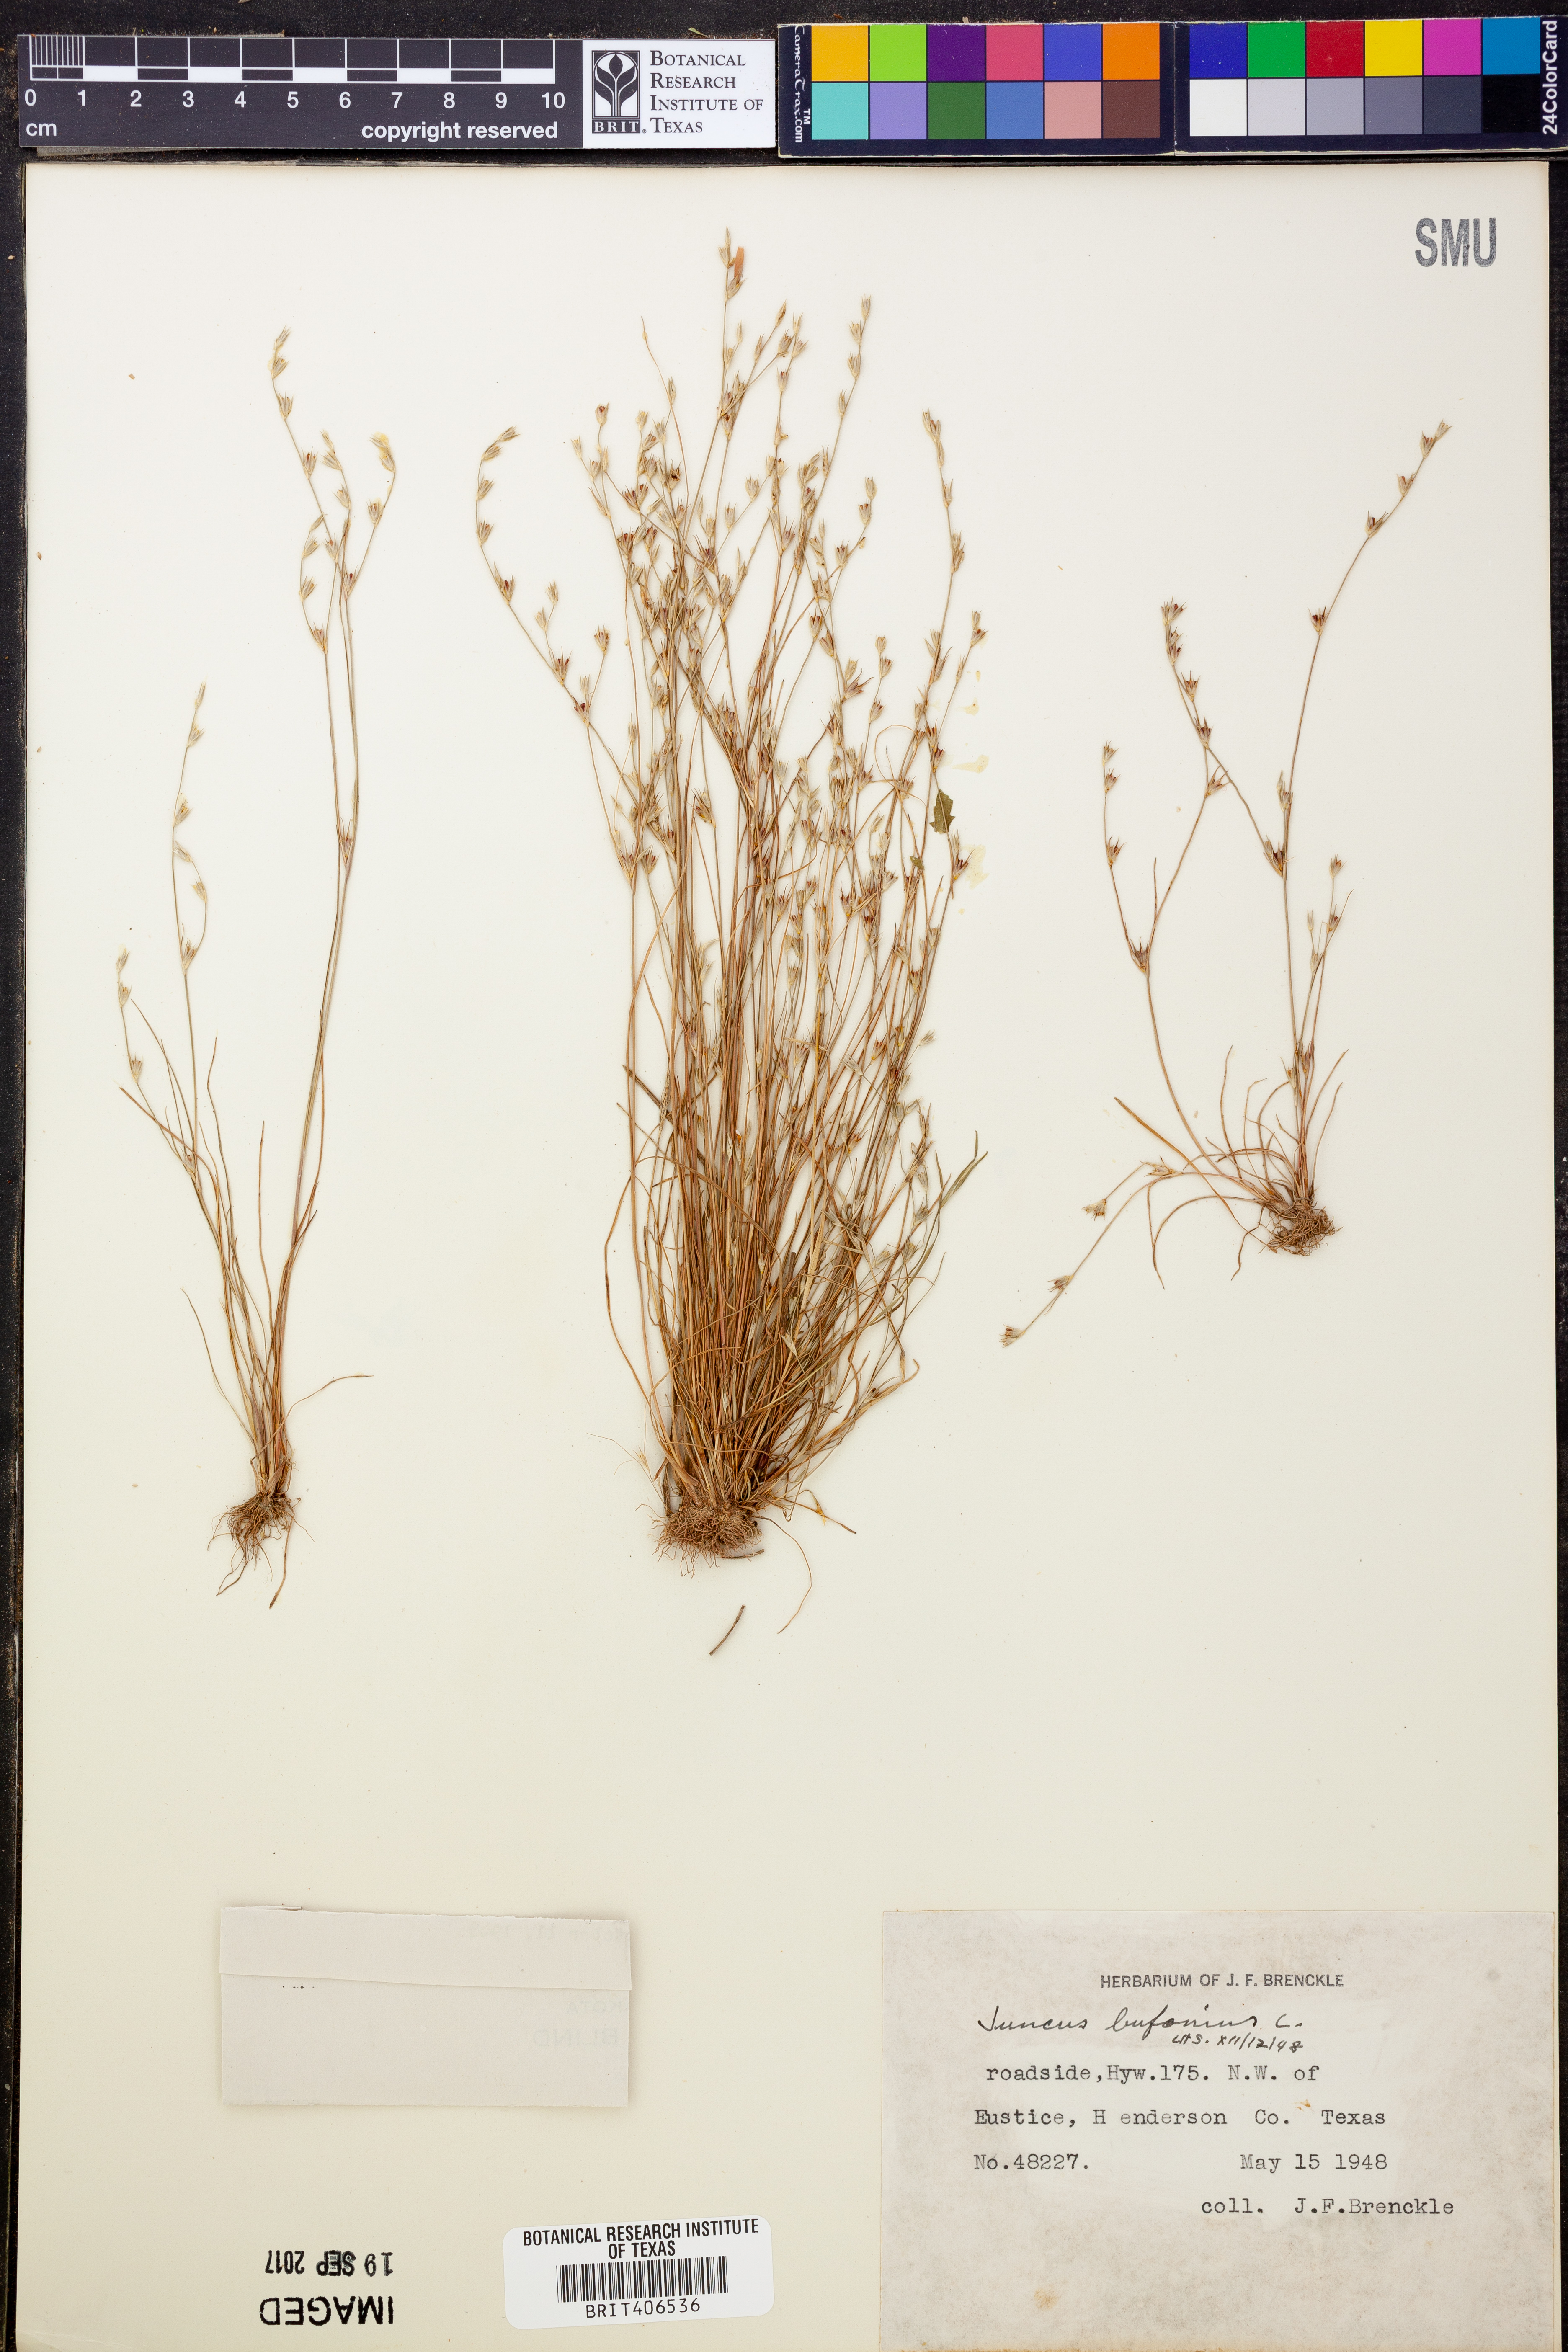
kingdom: Plantae
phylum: Tracheophyta
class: Liliopsida
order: Poales
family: Juncaceae
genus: Juncus
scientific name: Juncus bufonius
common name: Toad rush
